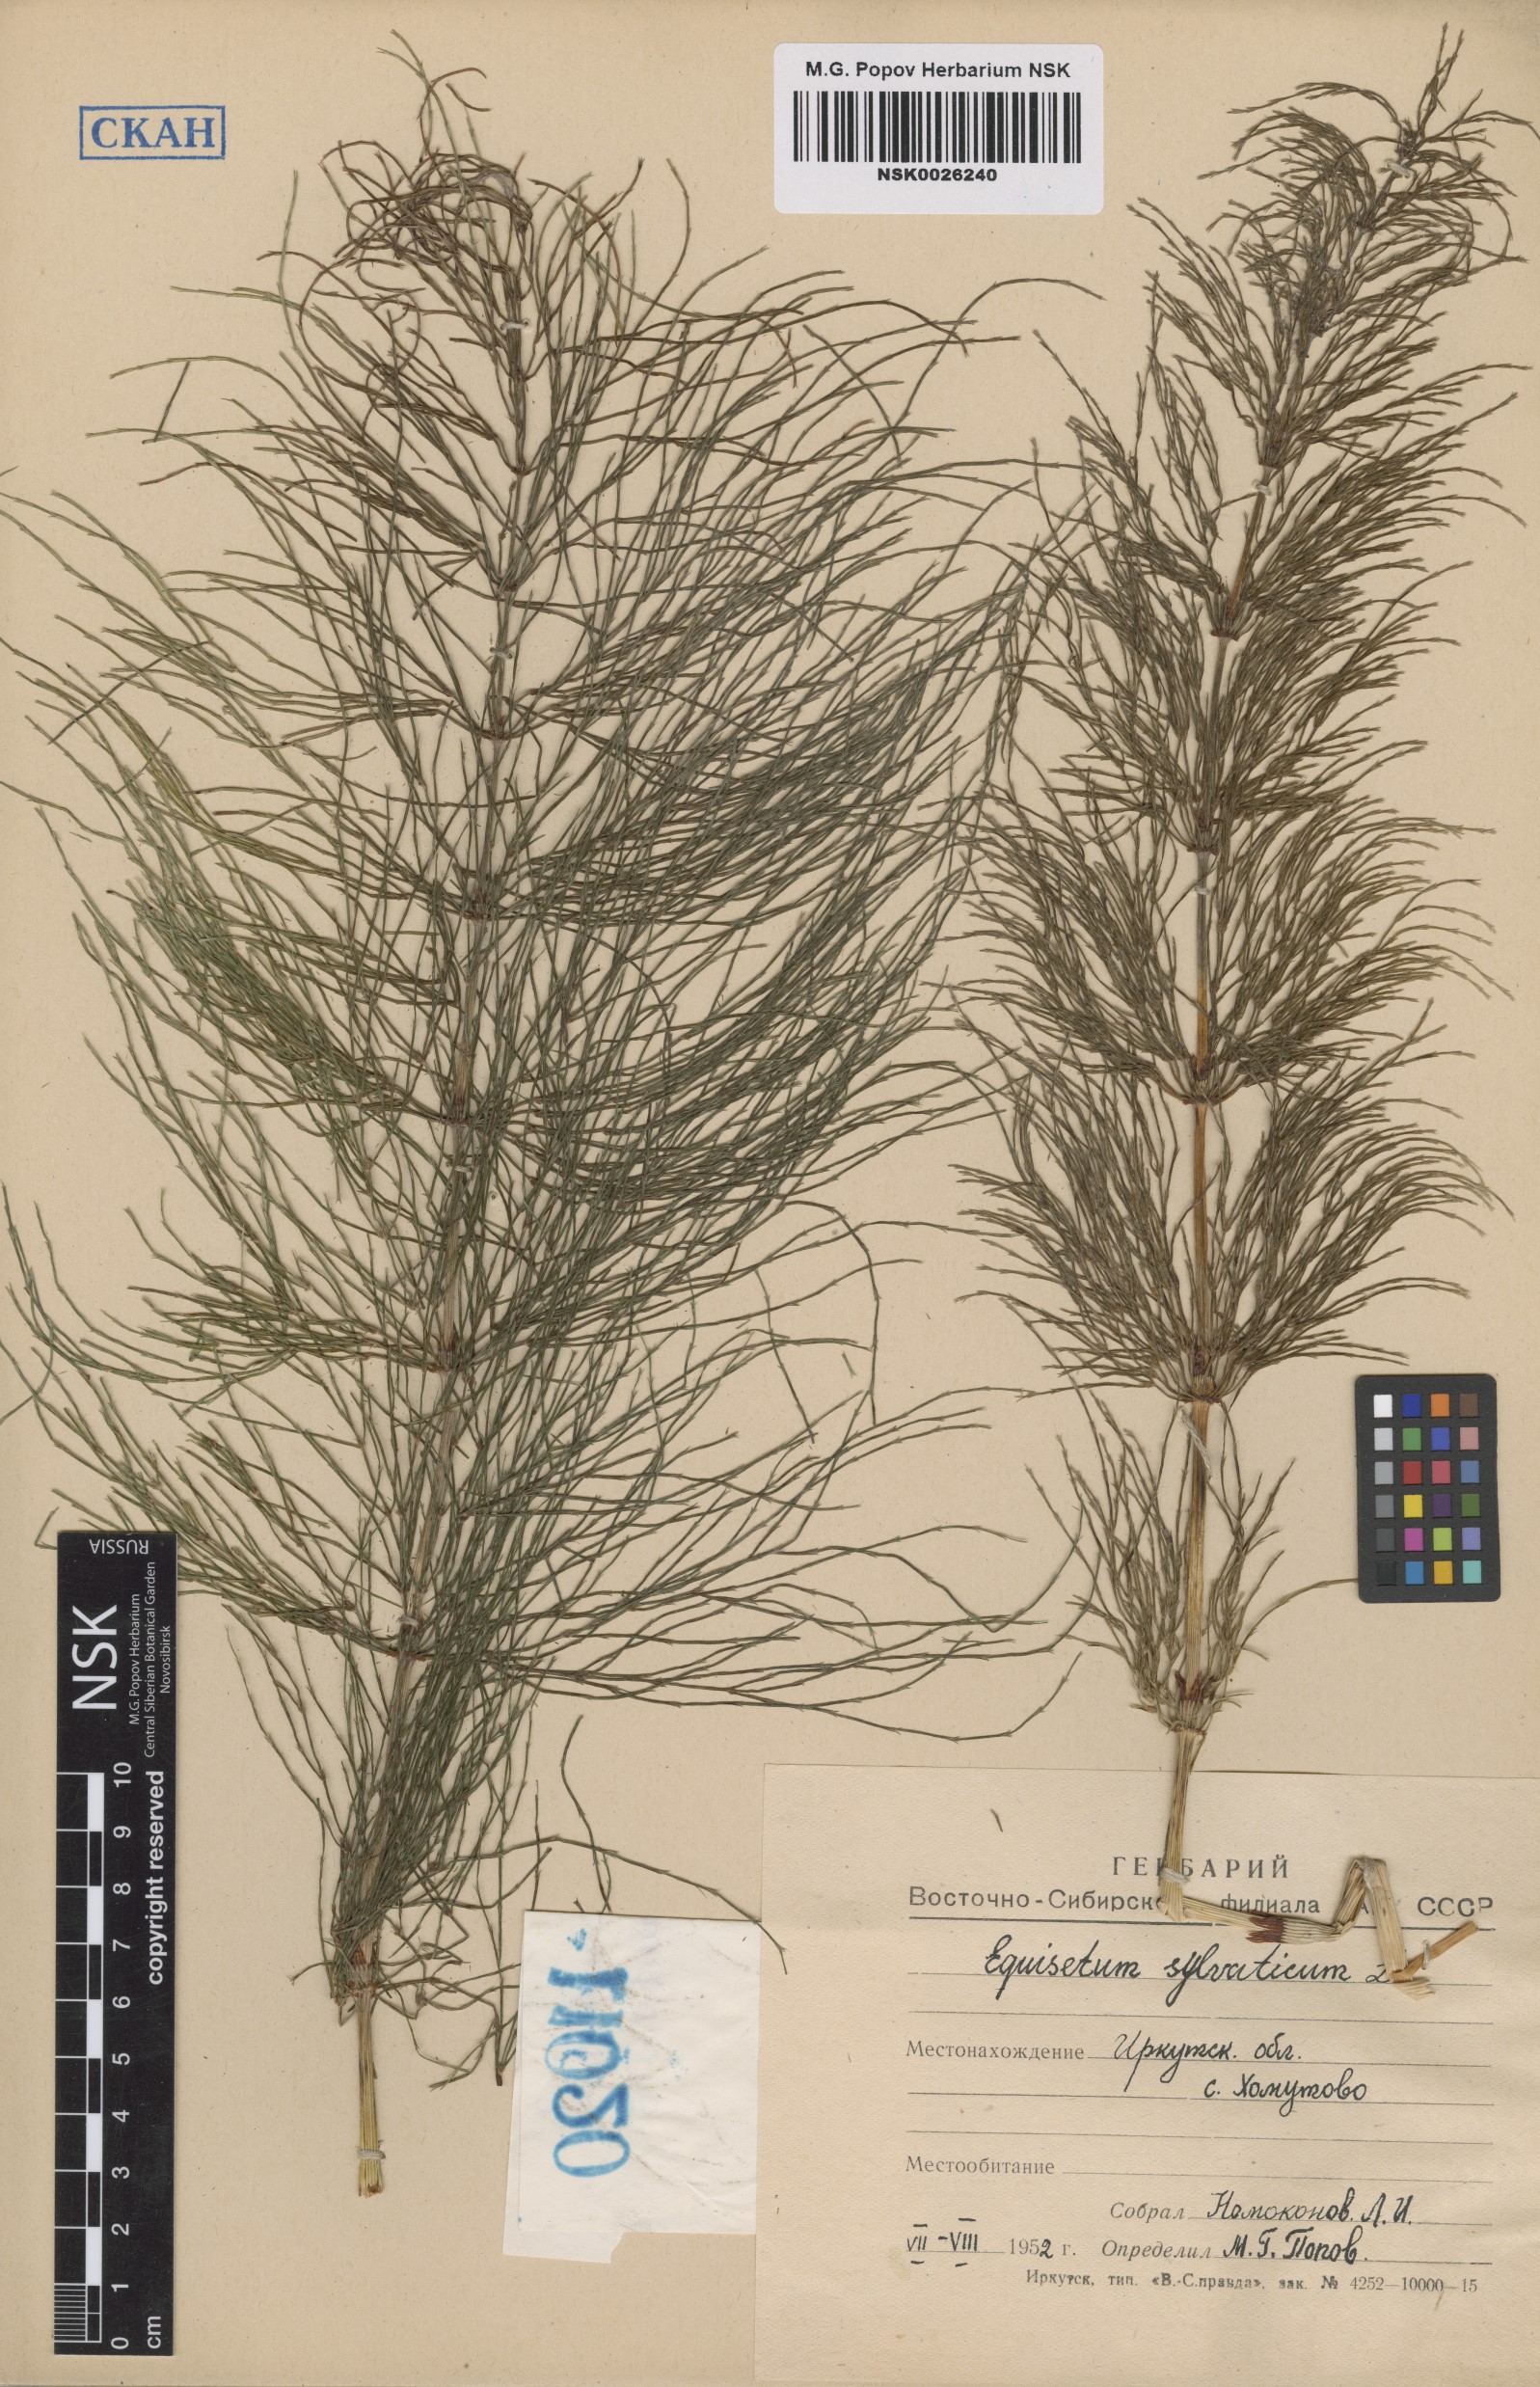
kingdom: Plantae
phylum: Tracheophyta
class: Polypodiopsida
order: Equisetales
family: Equisetaceae
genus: Equisetum
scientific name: Equisetum sylvaticum
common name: Wood horsetail
